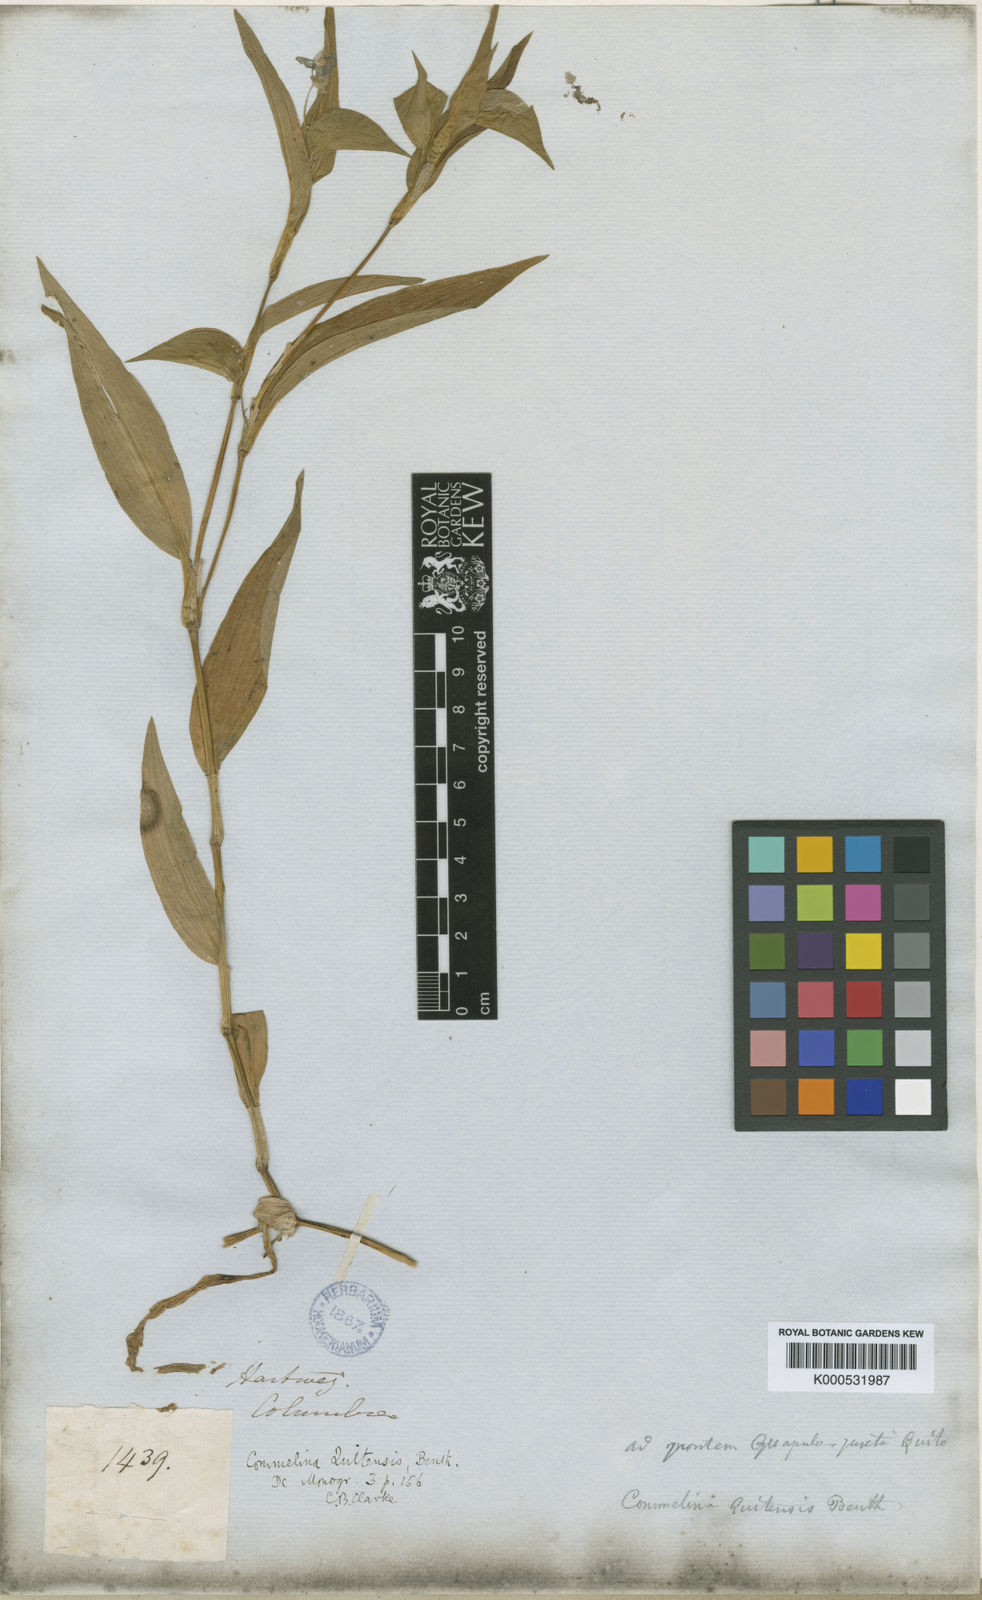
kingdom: Plantae
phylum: Tracheophyta
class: Liliopsida
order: Commelinales
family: Commelinaceae
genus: Commelina
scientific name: Commelina quitensis
